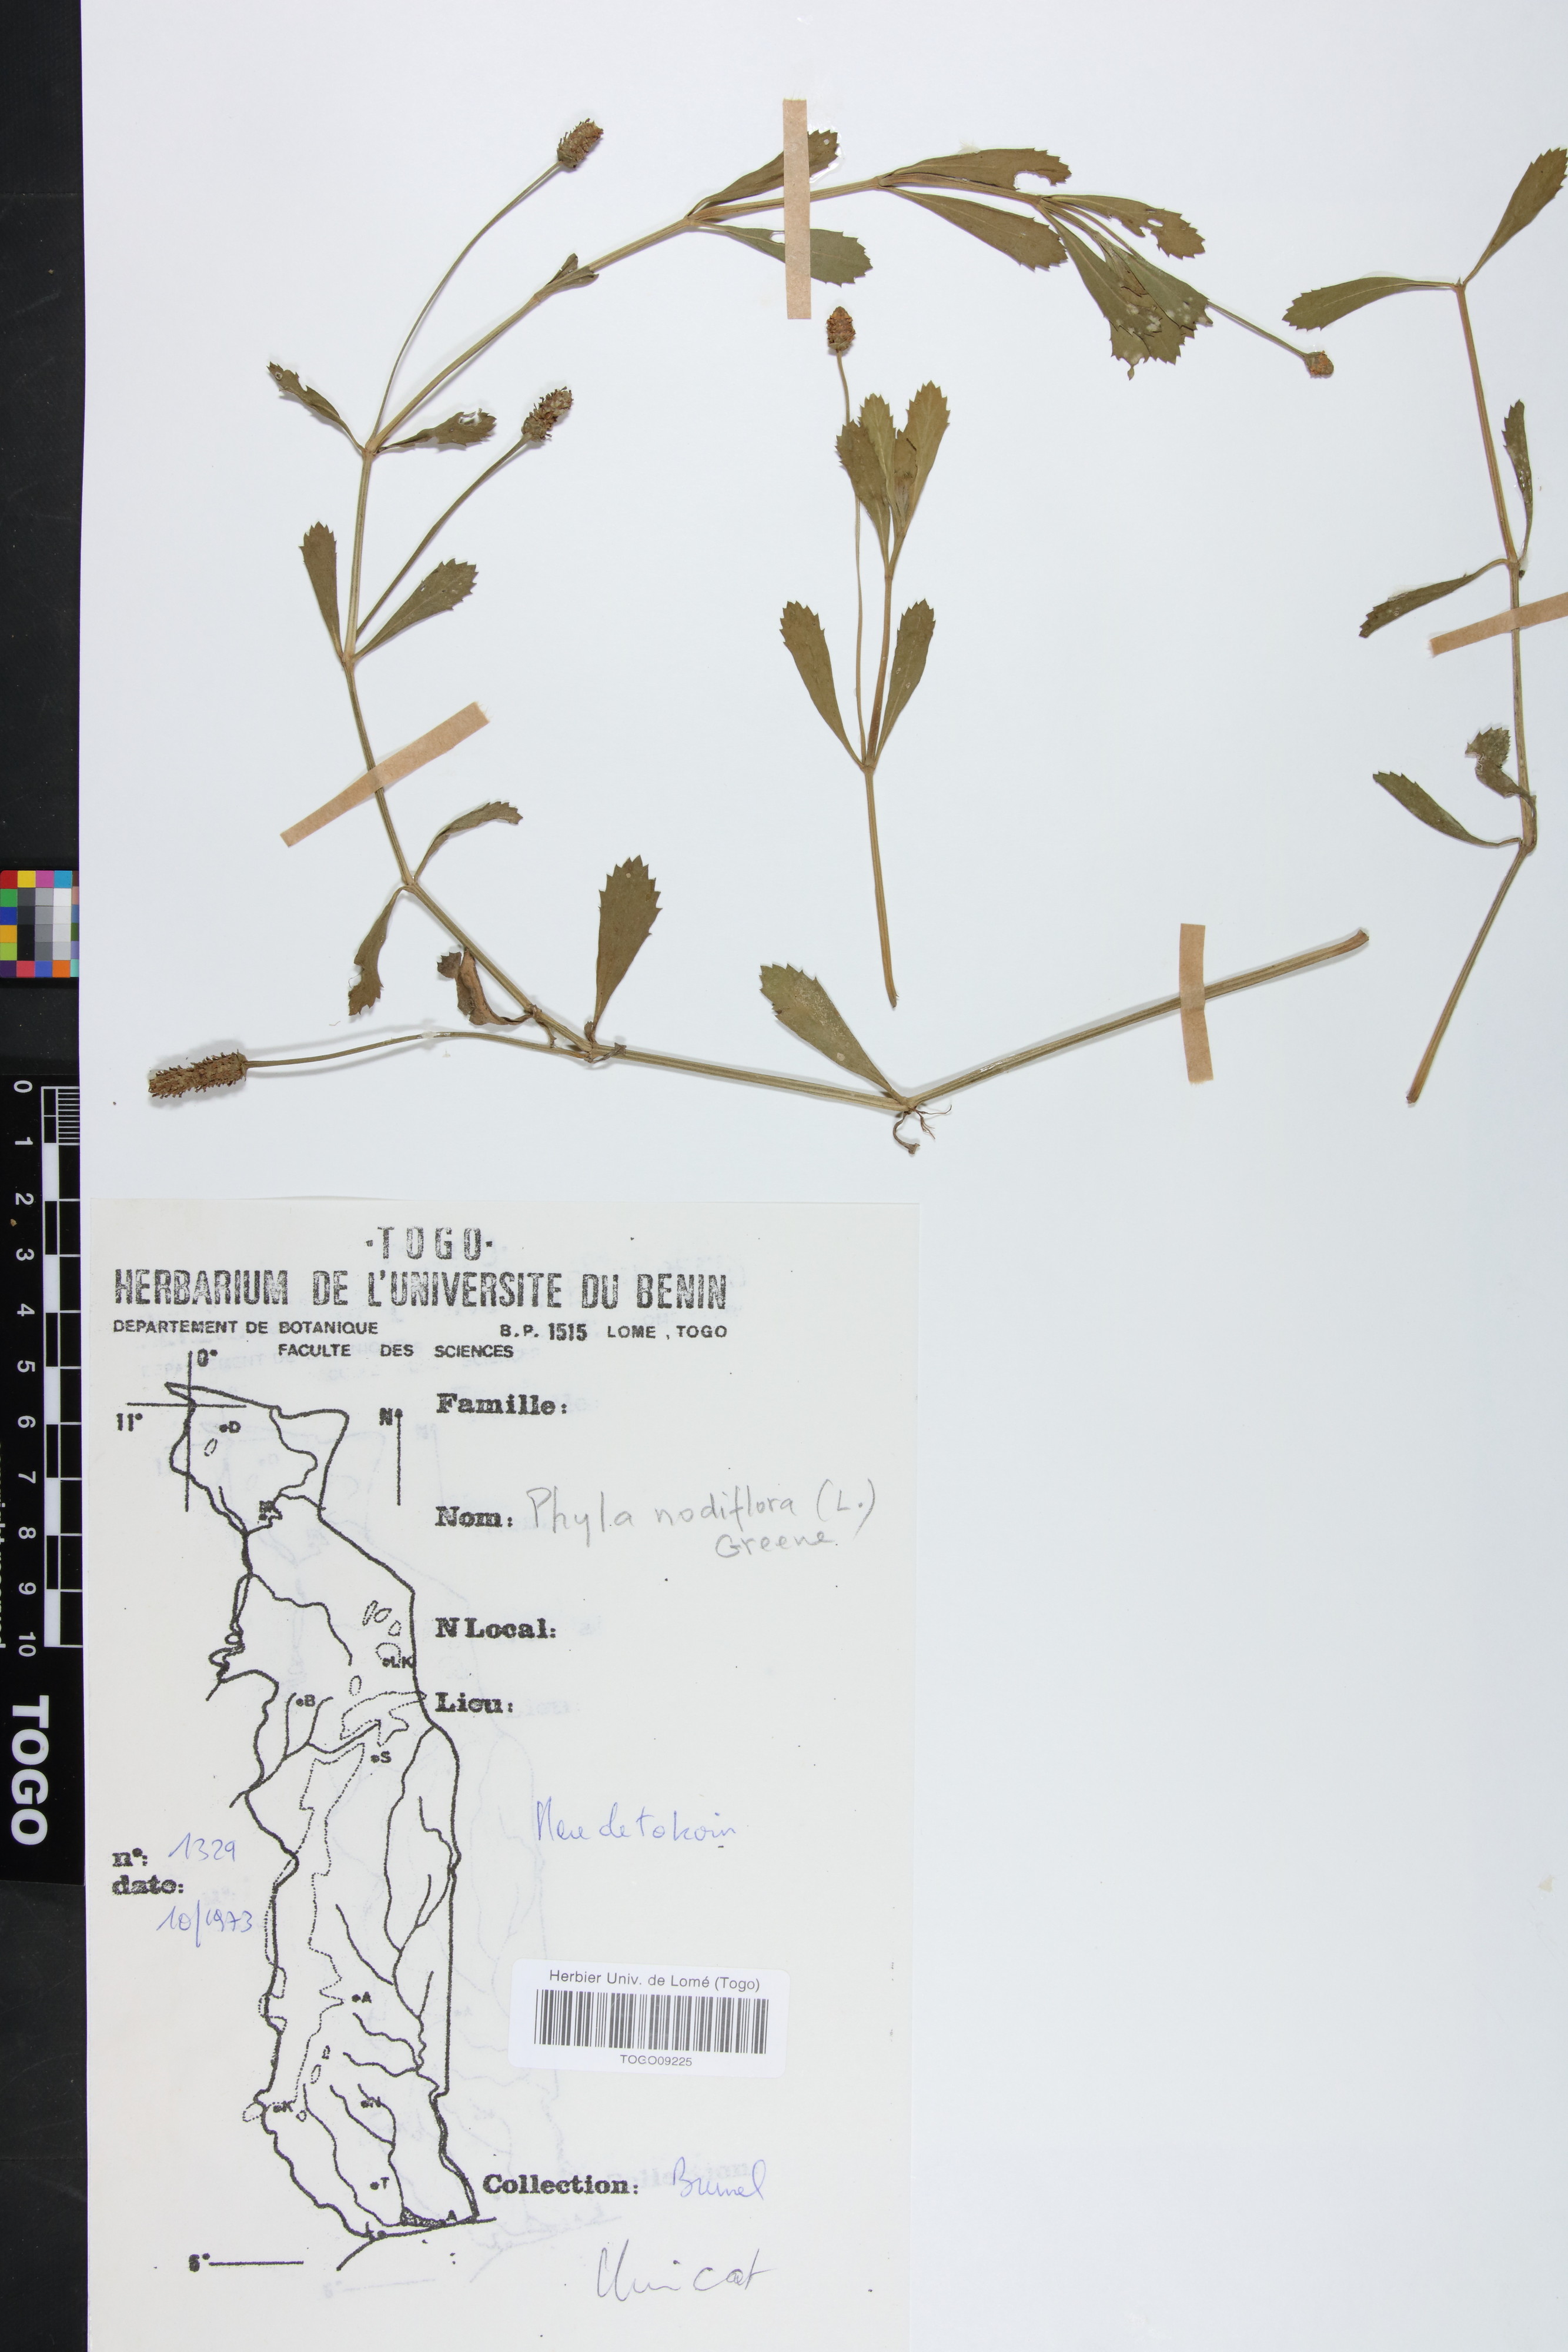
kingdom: Plantae
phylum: Tracheophyta
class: Magnoliopsida
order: Lamiales
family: Verbenaceae
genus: Phyla
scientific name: Phyla nodiflora
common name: Frogfruit
